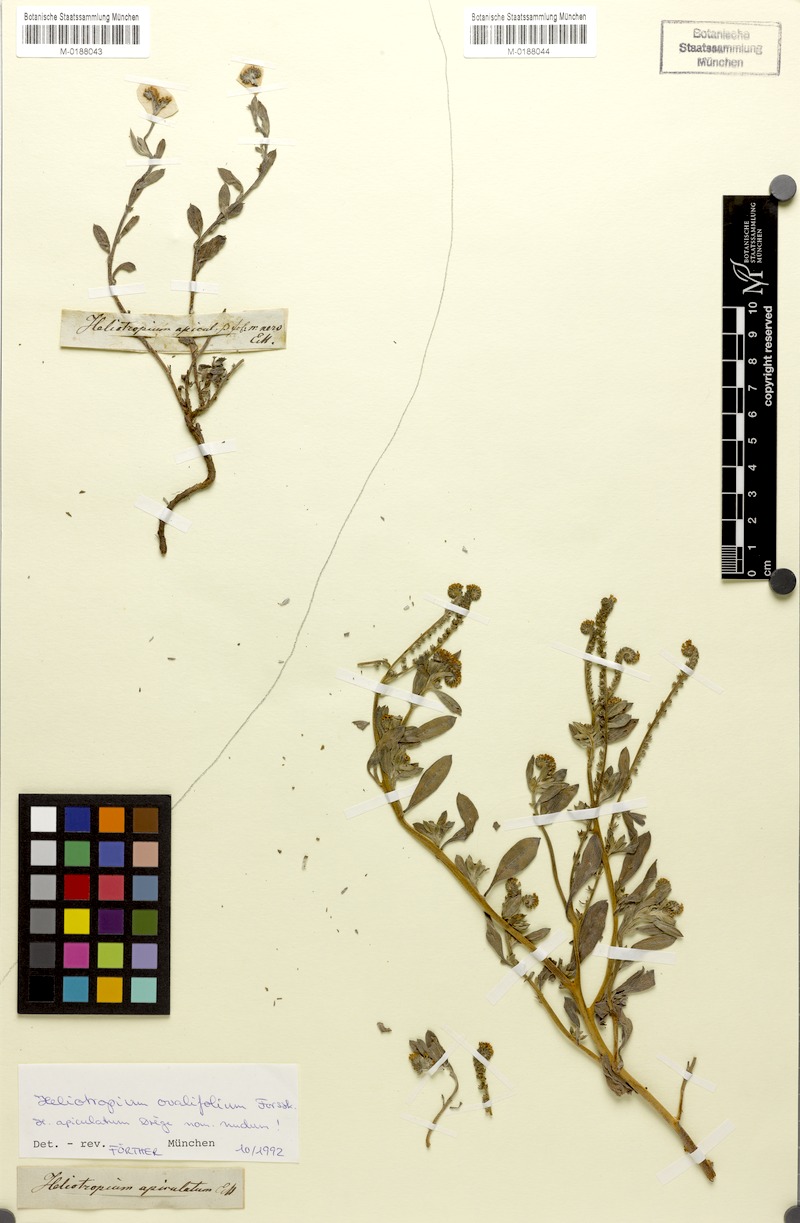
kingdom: Plantae
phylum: Tracheophyta
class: Magnoliopsida
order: Boraginales
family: Heliotropiaceae
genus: Euploca
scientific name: Euploca ovalifolia
